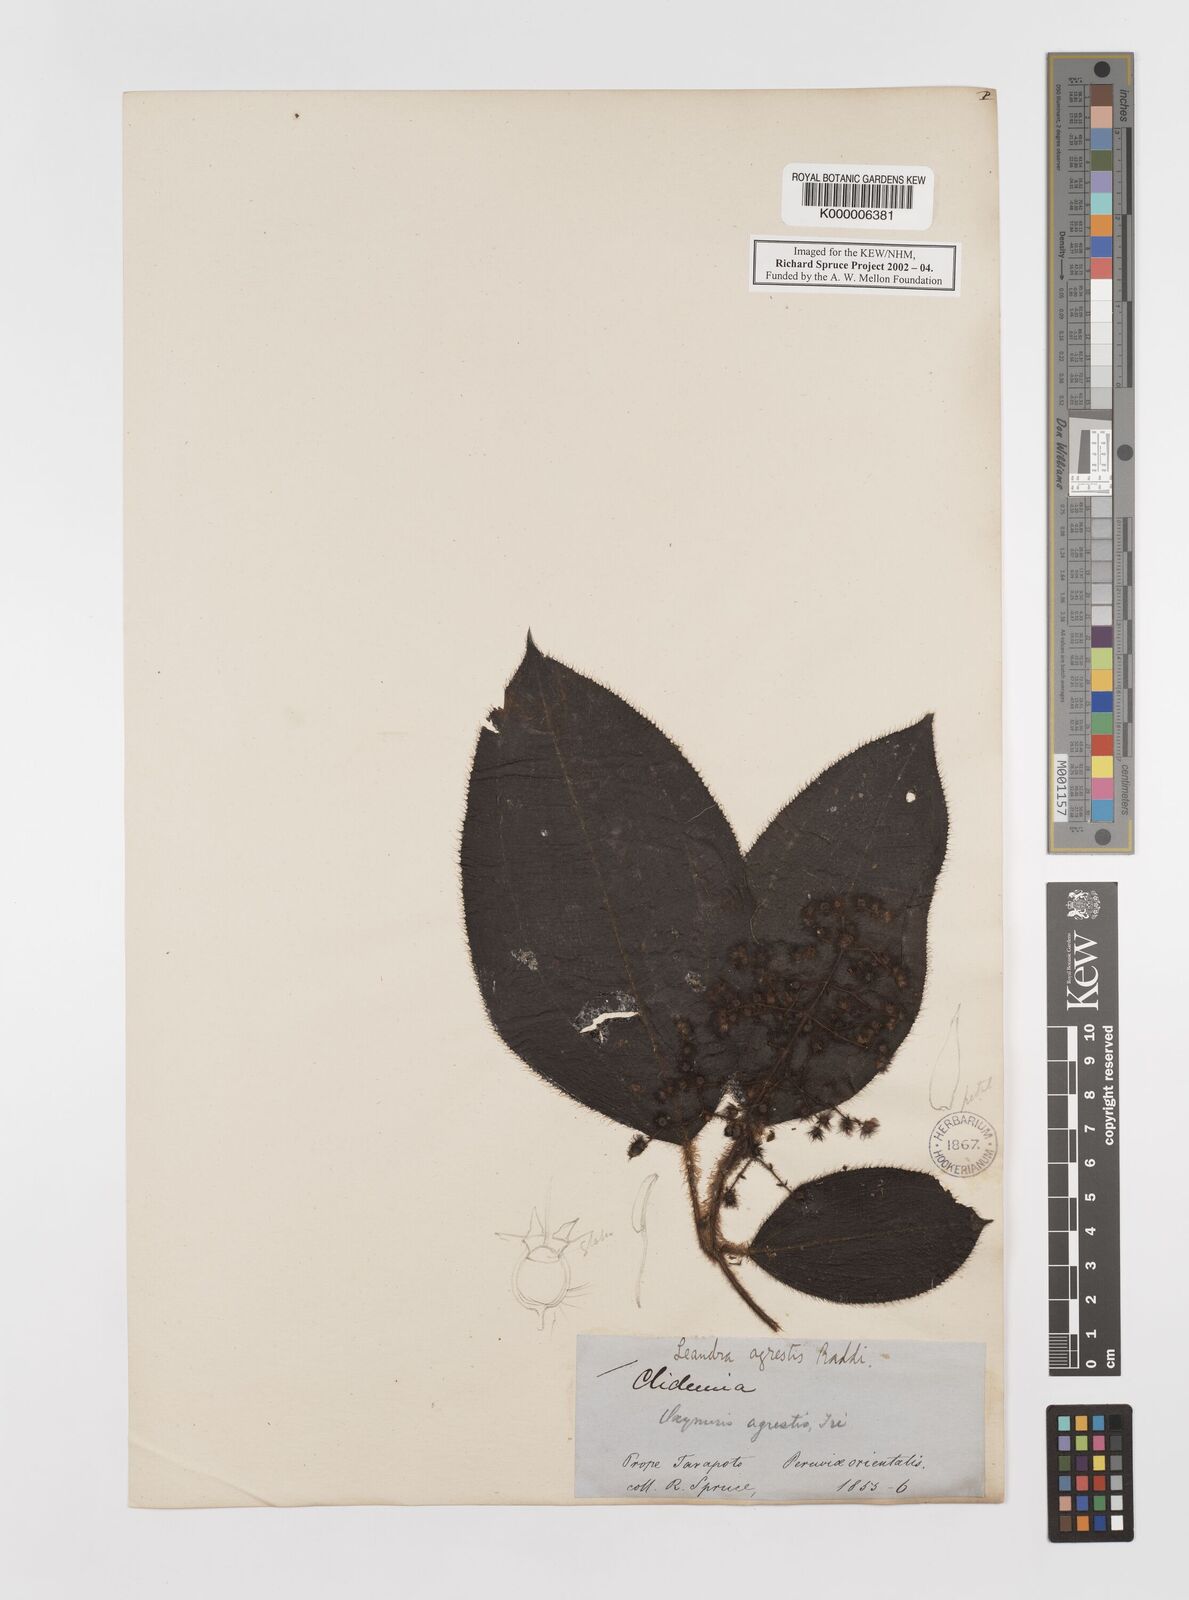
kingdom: Plantae
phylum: Tracheophyta
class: Magnoliopsida
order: Myrtales
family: Melastomataceae
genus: Miconia
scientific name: Miconia agrestis
